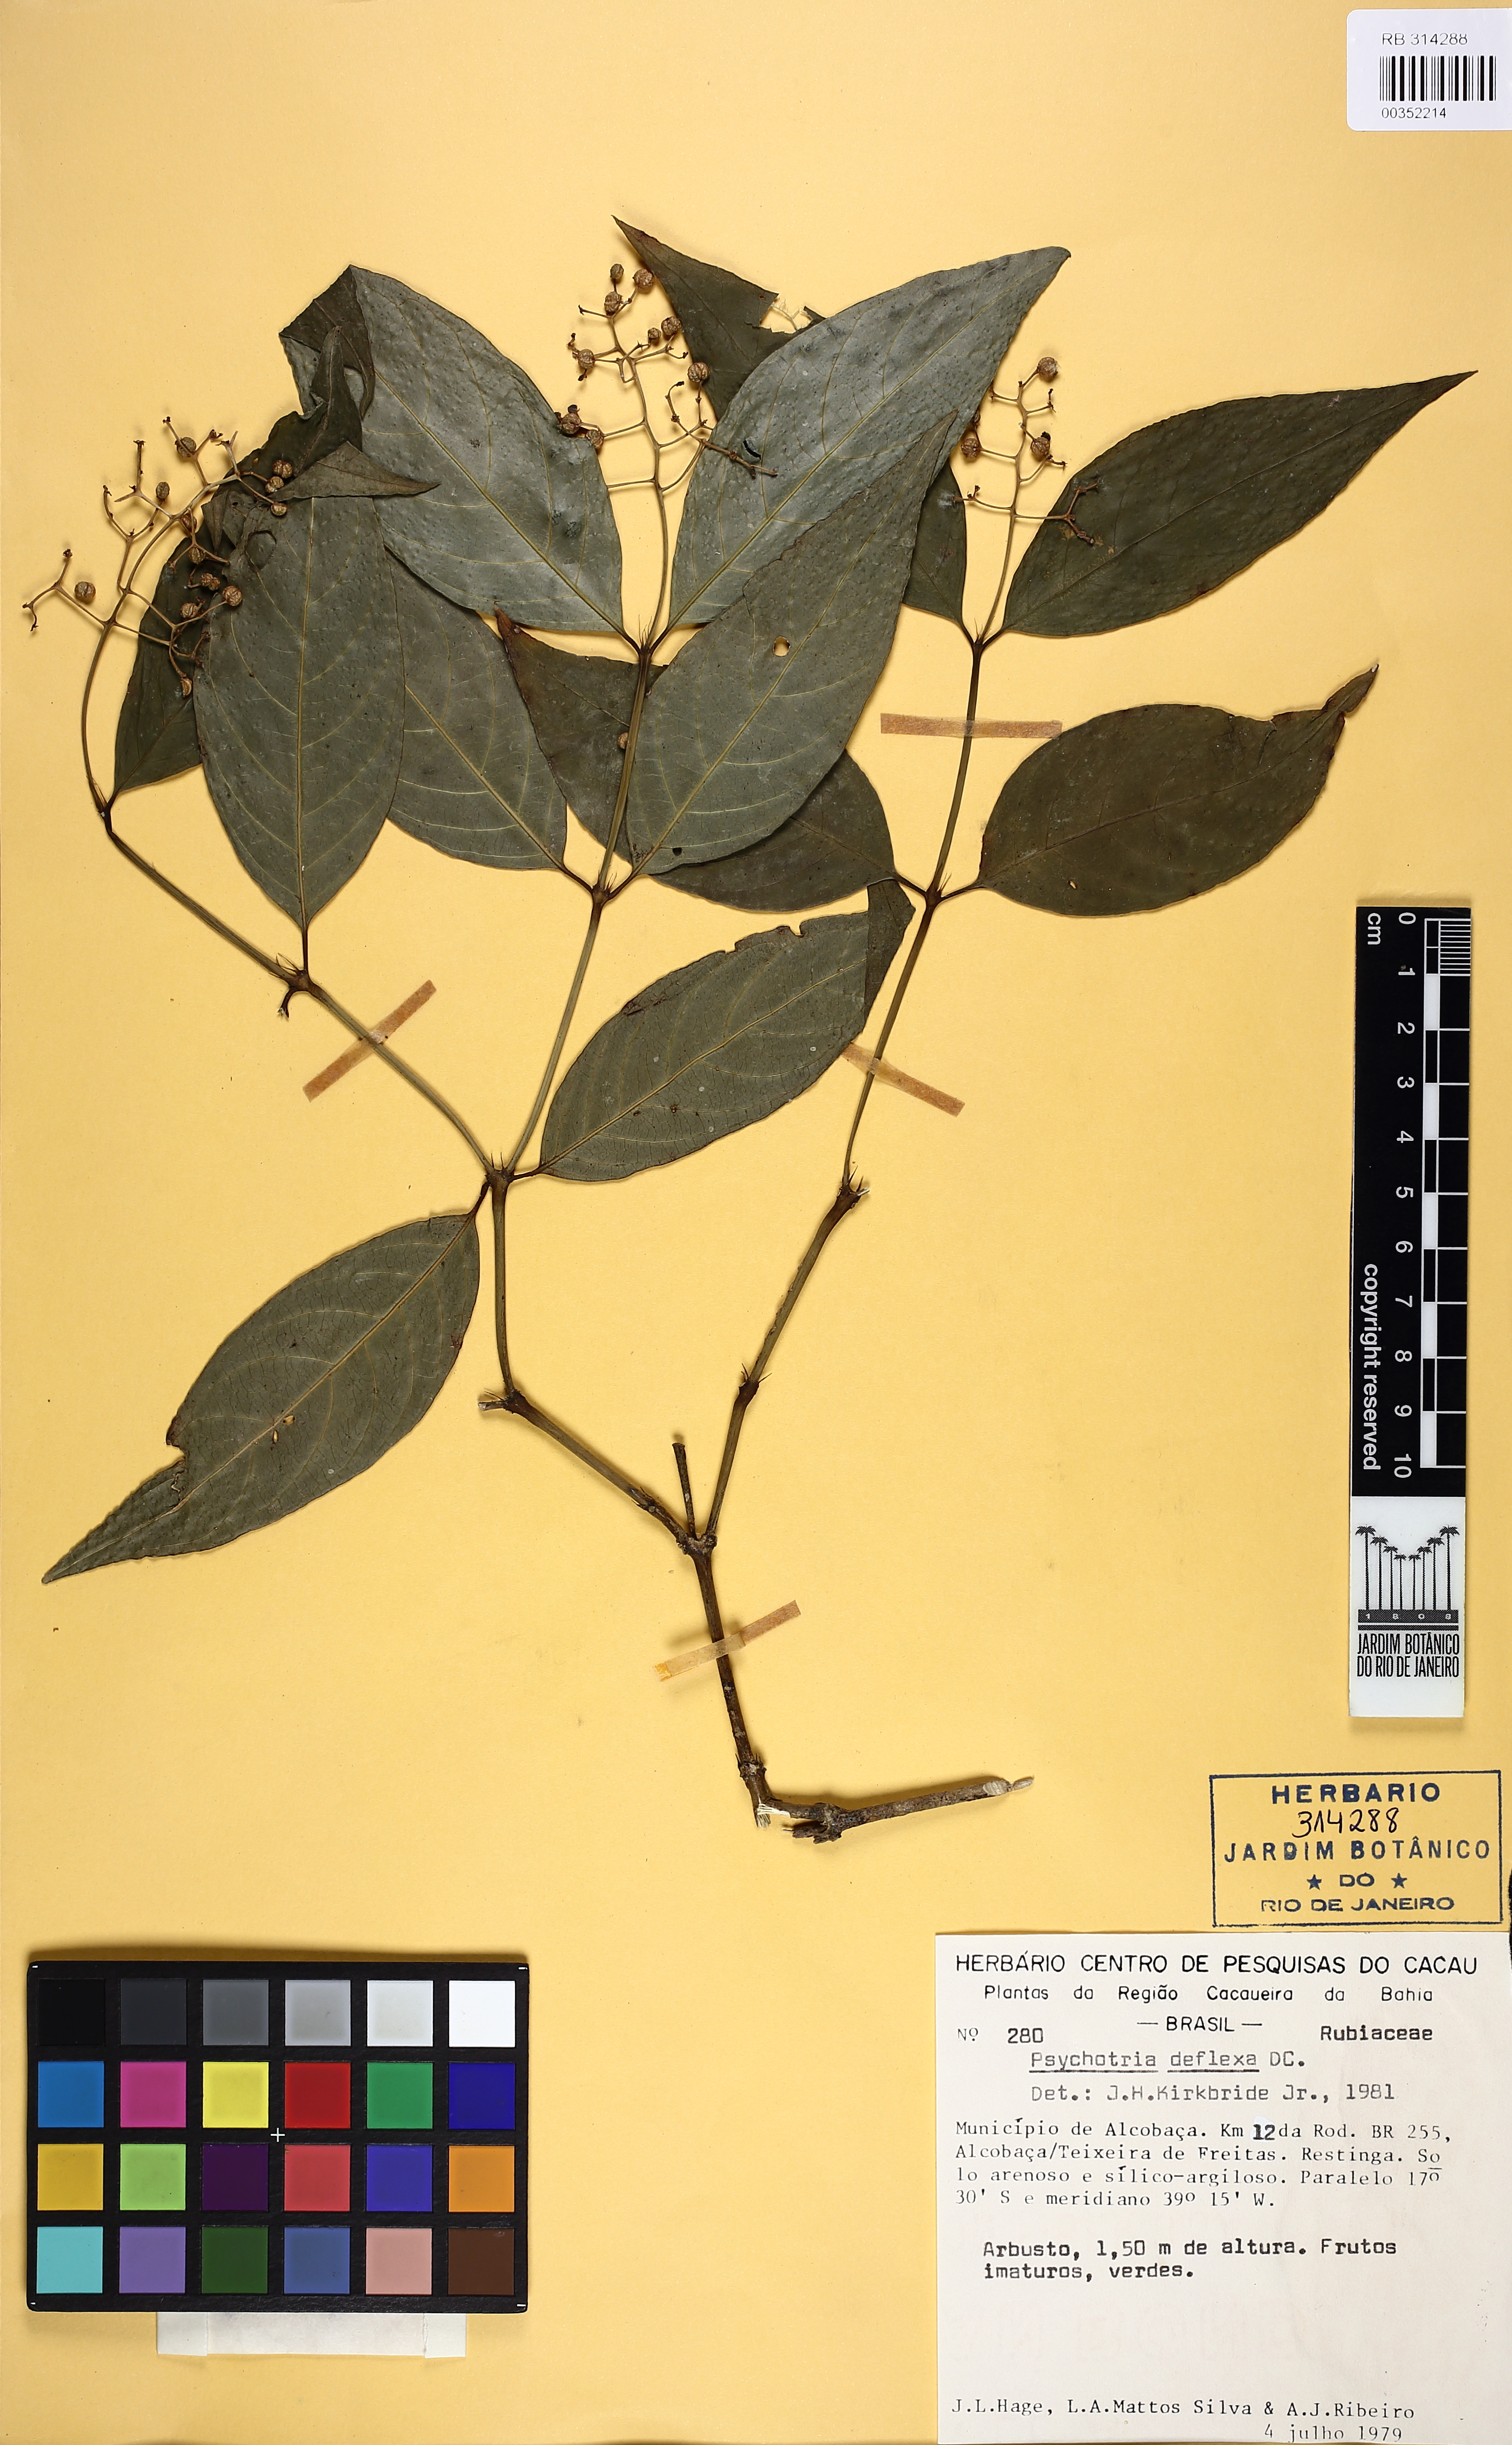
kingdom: Plantae
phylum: Tracheophyta
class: Magnoliopsida
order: Gentianales
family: Rubiaceae
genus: Palicourea
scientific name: Palicourea deflexa
